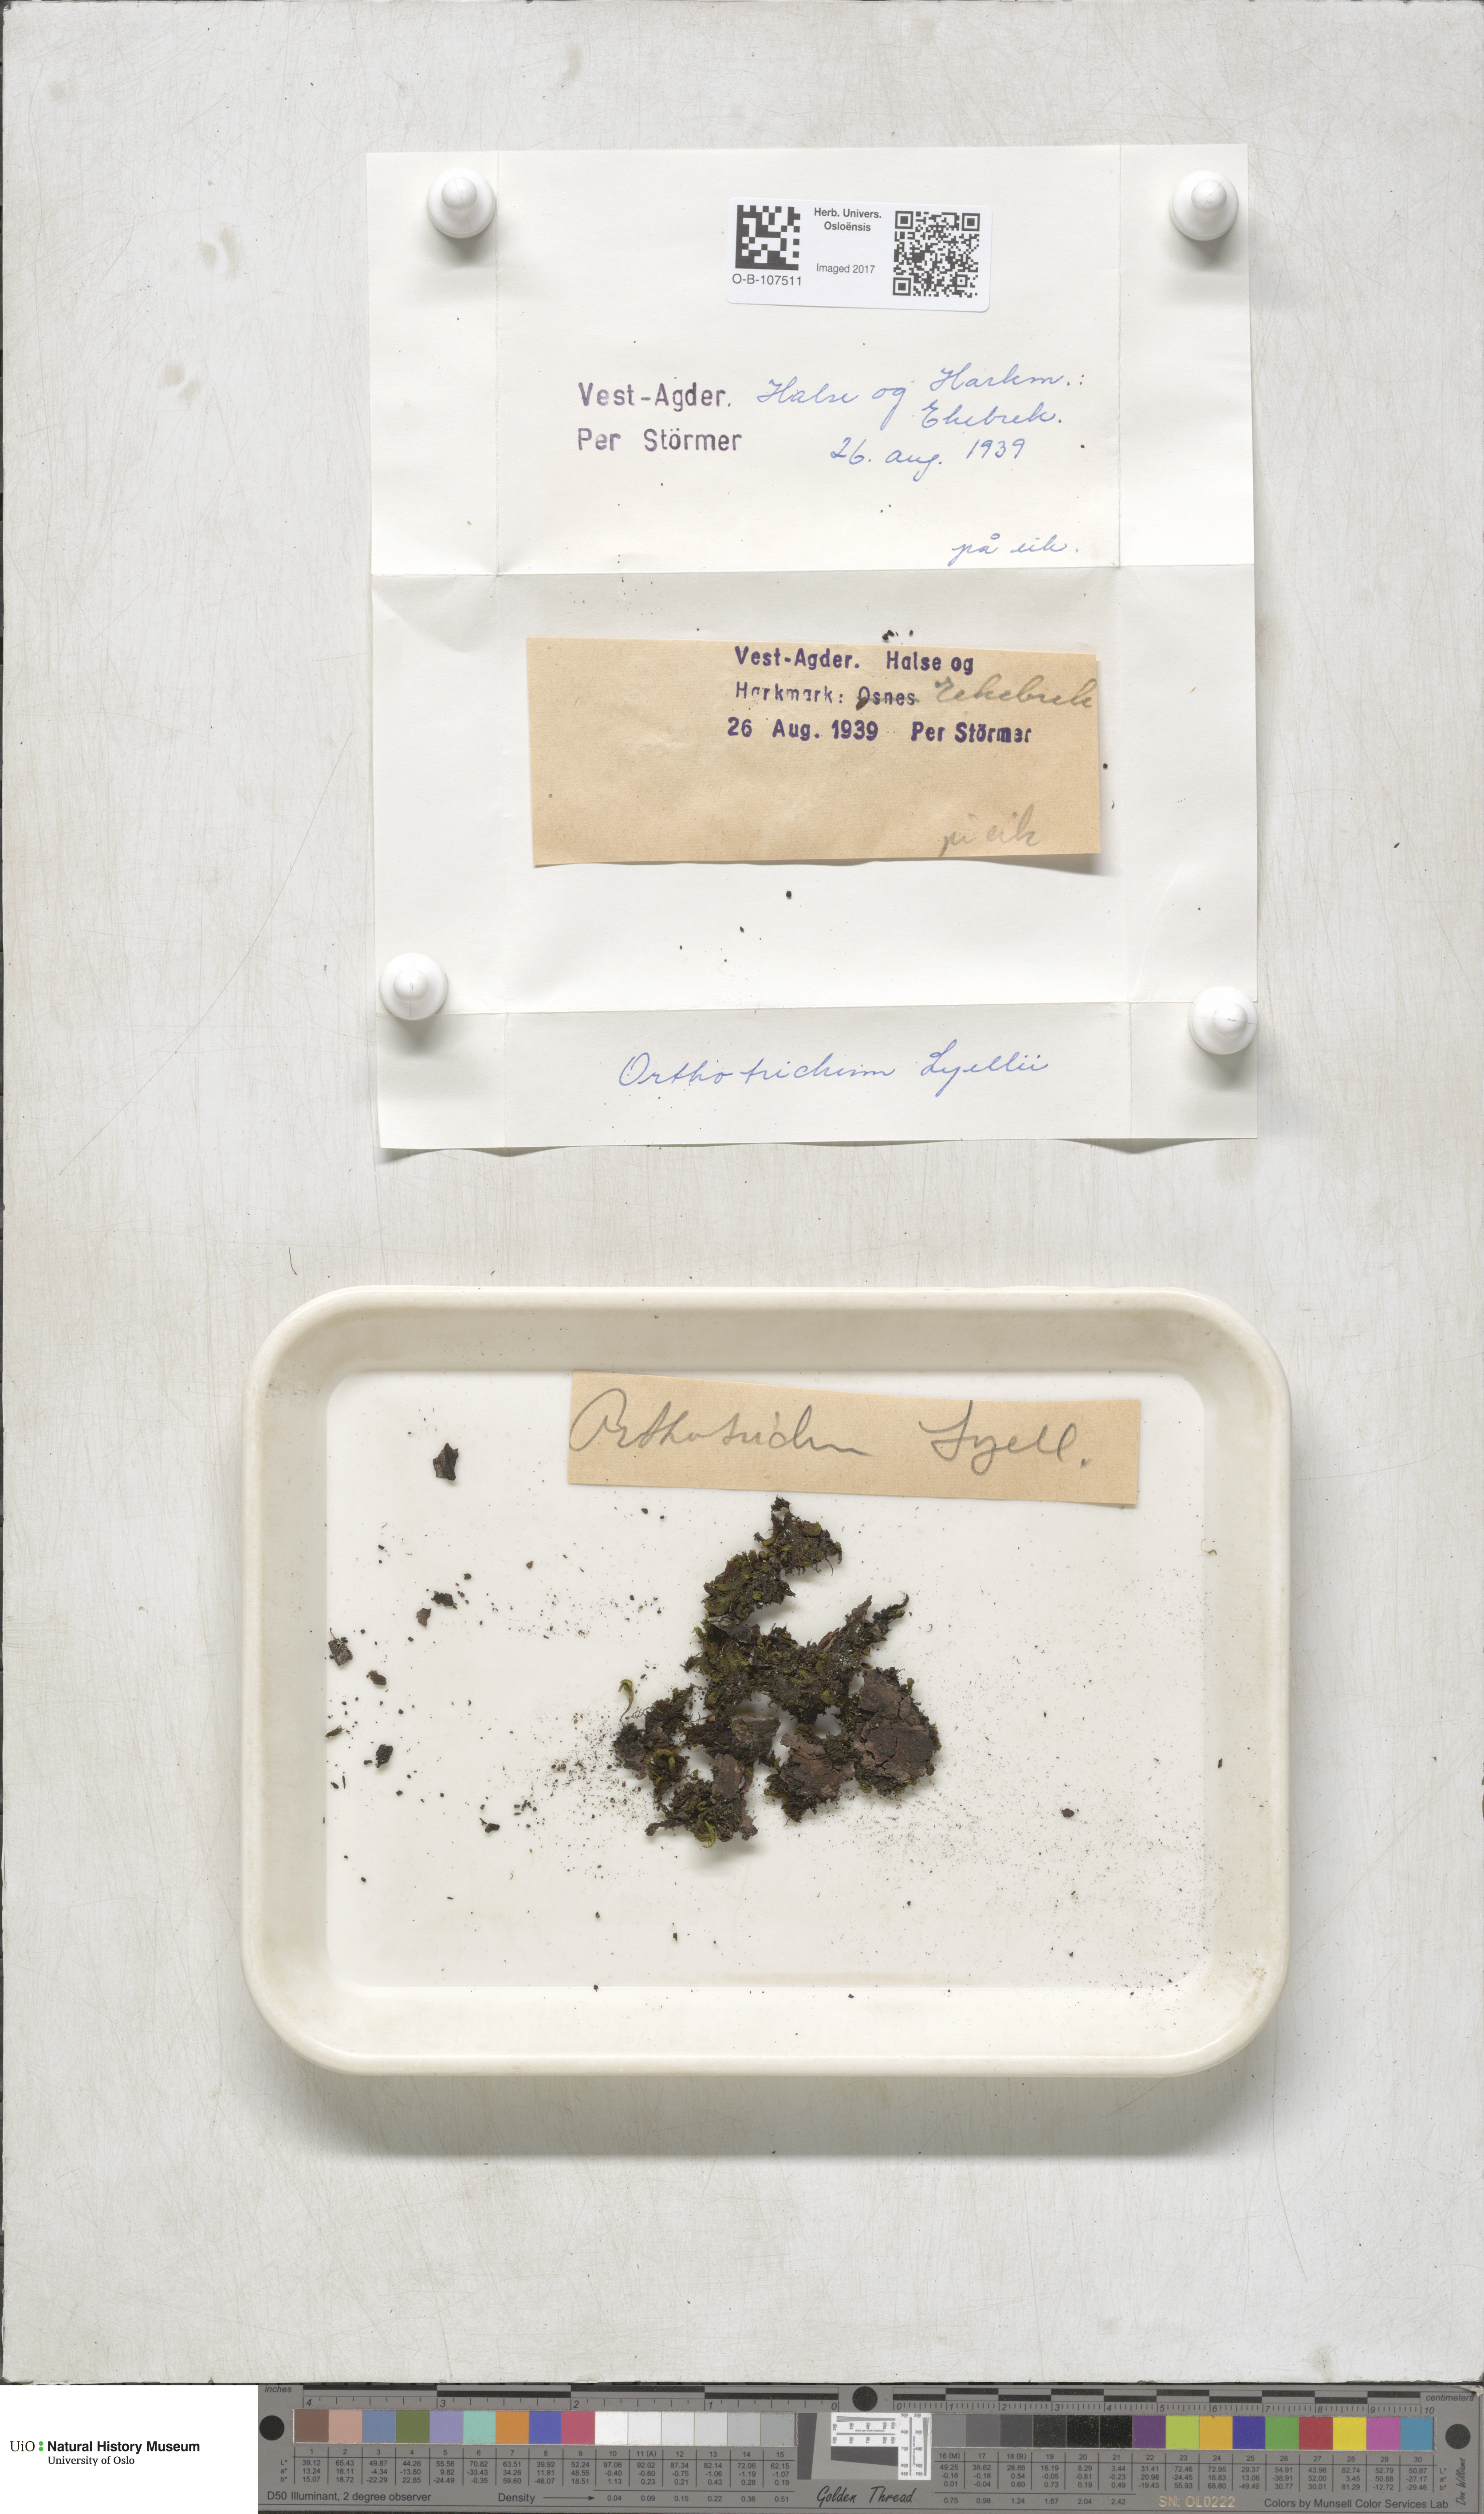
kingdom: Plantae
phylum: Bryophyta
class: Bryopsida
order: Orthotrichales
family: Orthotrichaceae
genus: Pulvigera
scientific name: Pulvigera lyellii
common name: Lyell's bristle-moss
